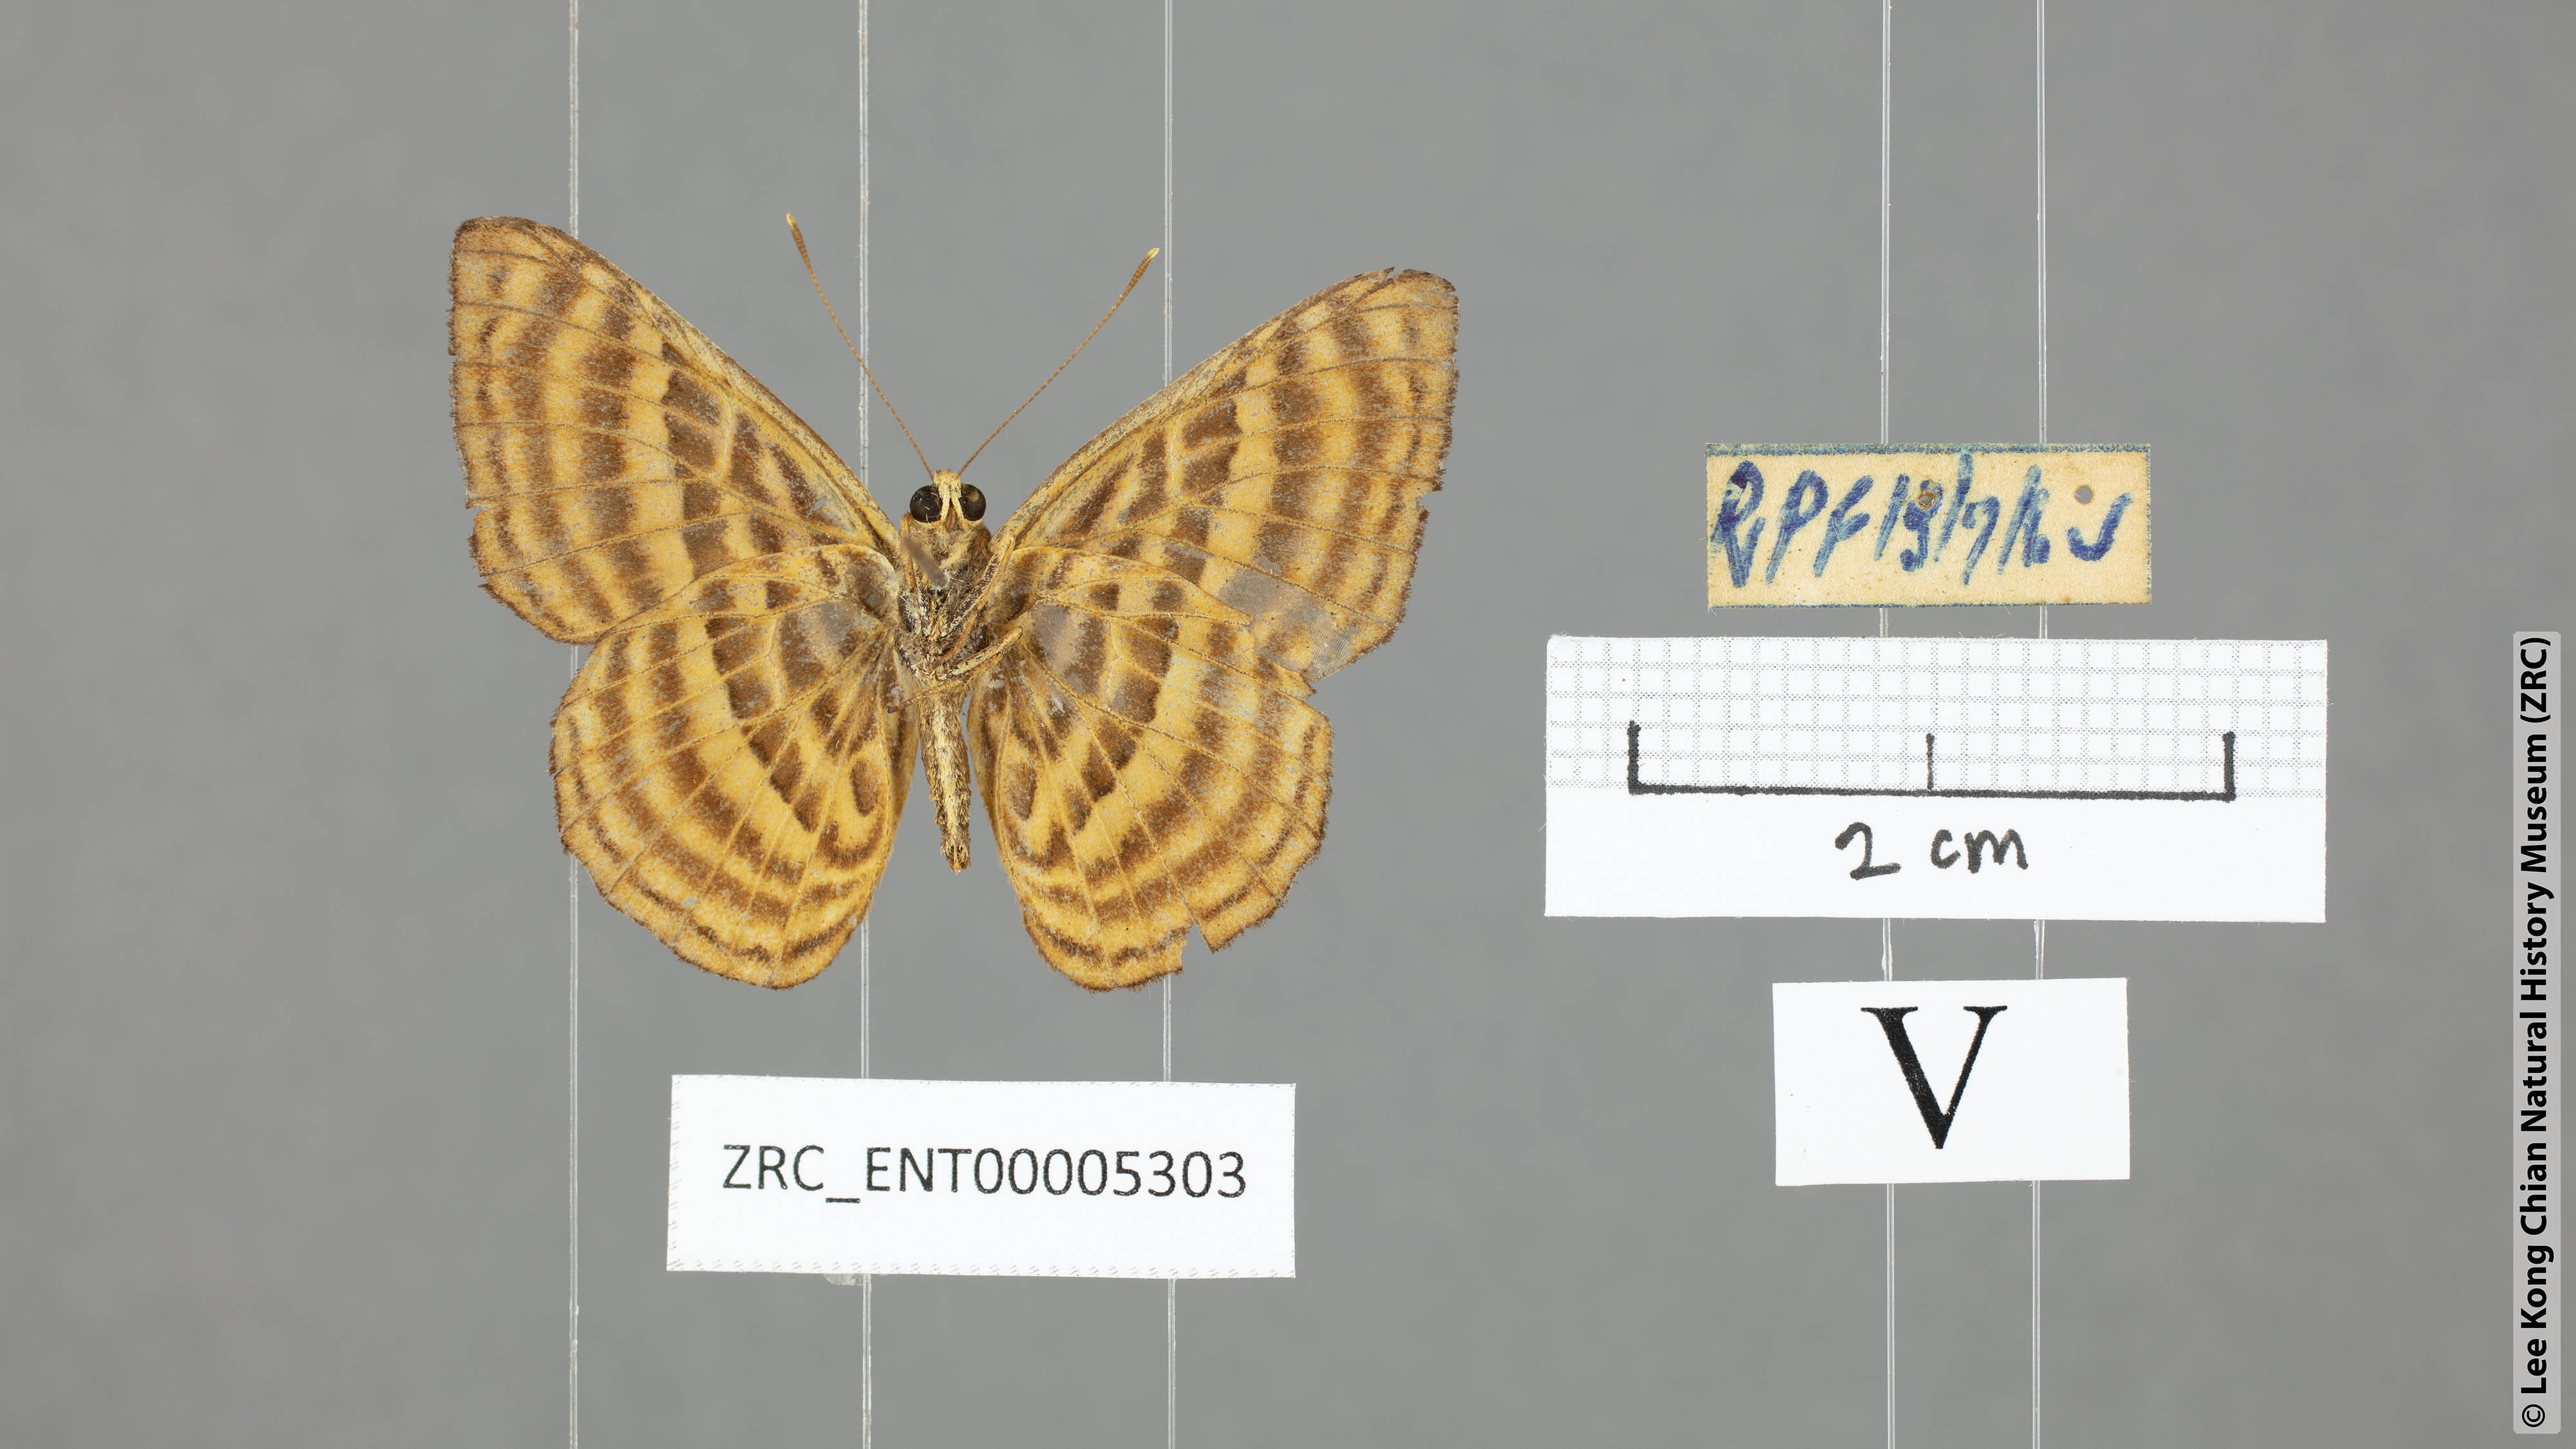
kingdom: Animalia
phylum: Arthropoda
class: Insecta
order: Lepidoptera
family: Riodinidae
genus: Zemeros
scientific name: Zemeros emesoides
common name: Malay punchinello
